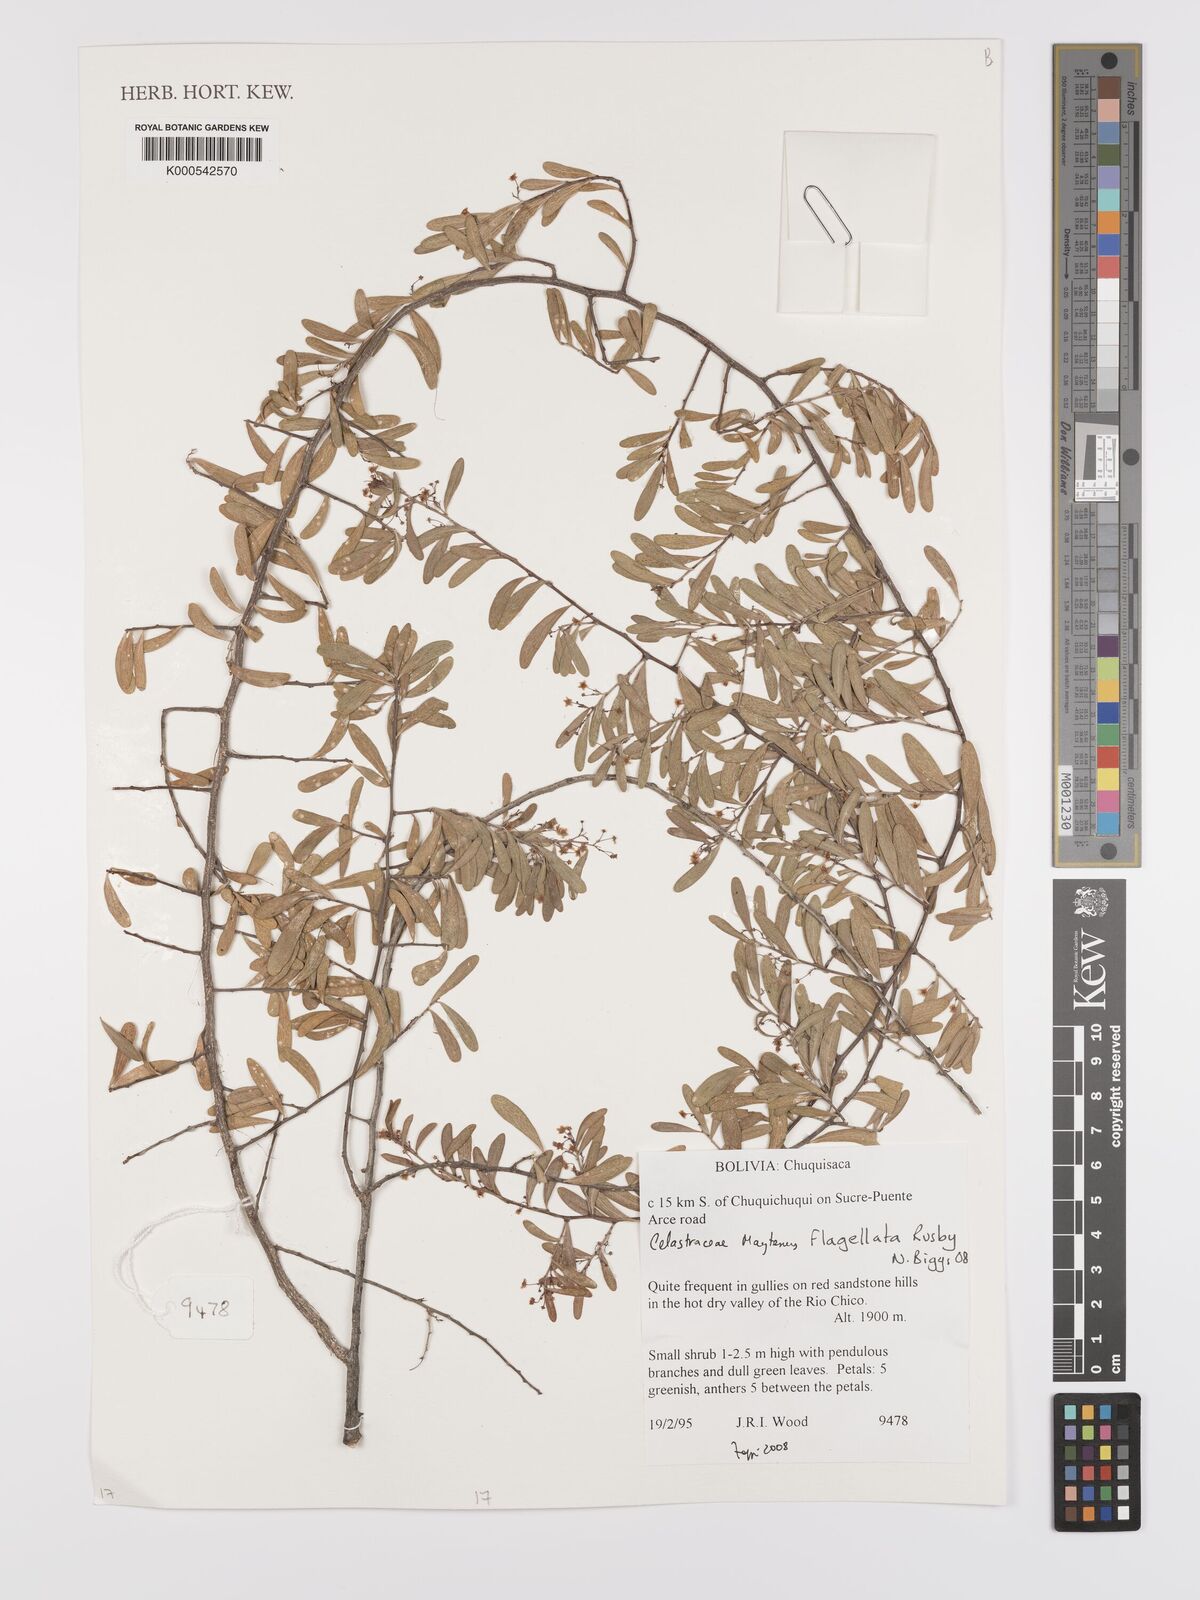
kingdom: Plantae
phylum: Tracheophyta
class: Magnoliopsida
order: Celastrales
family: Celastraceae
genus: Monteverdia
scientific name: Monteverdia flagellata
